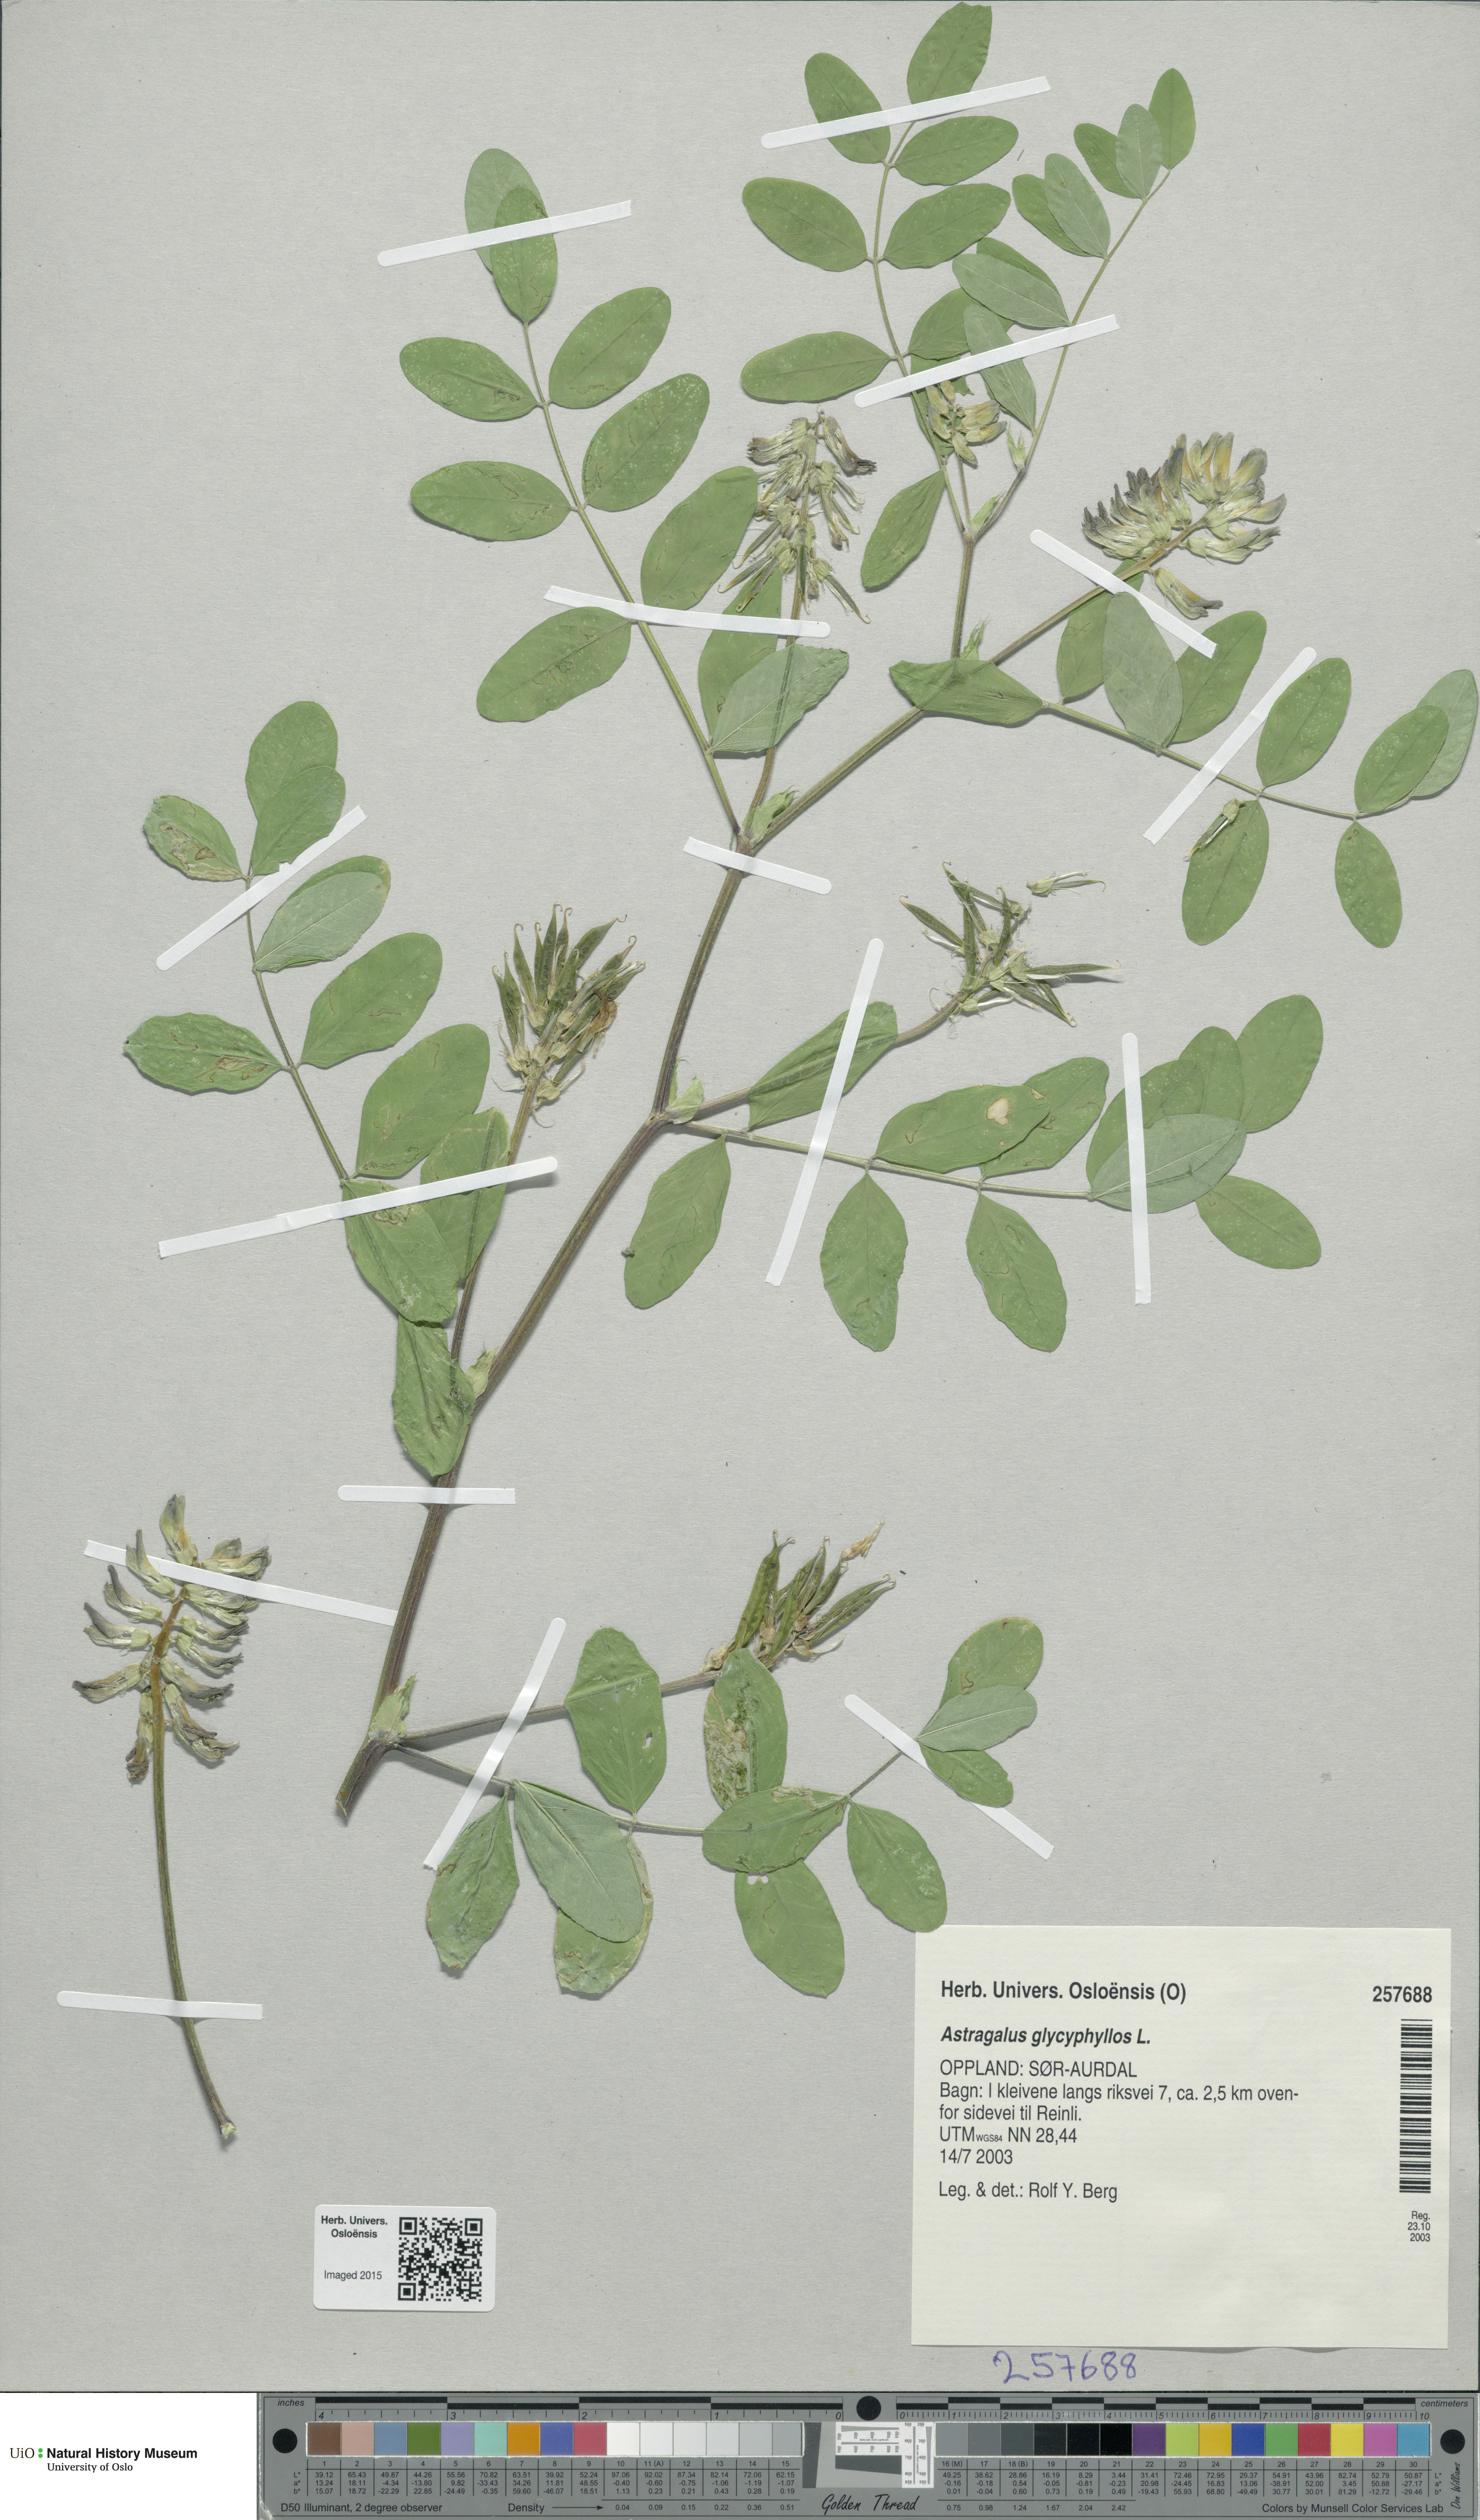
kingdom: Plantae
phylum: Tracheophyta
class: Magnoliopsida
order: Fabales
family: Fabaceae
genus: Astragalus
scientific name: Astragalus glycyphyllos
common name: Wild liquorice
